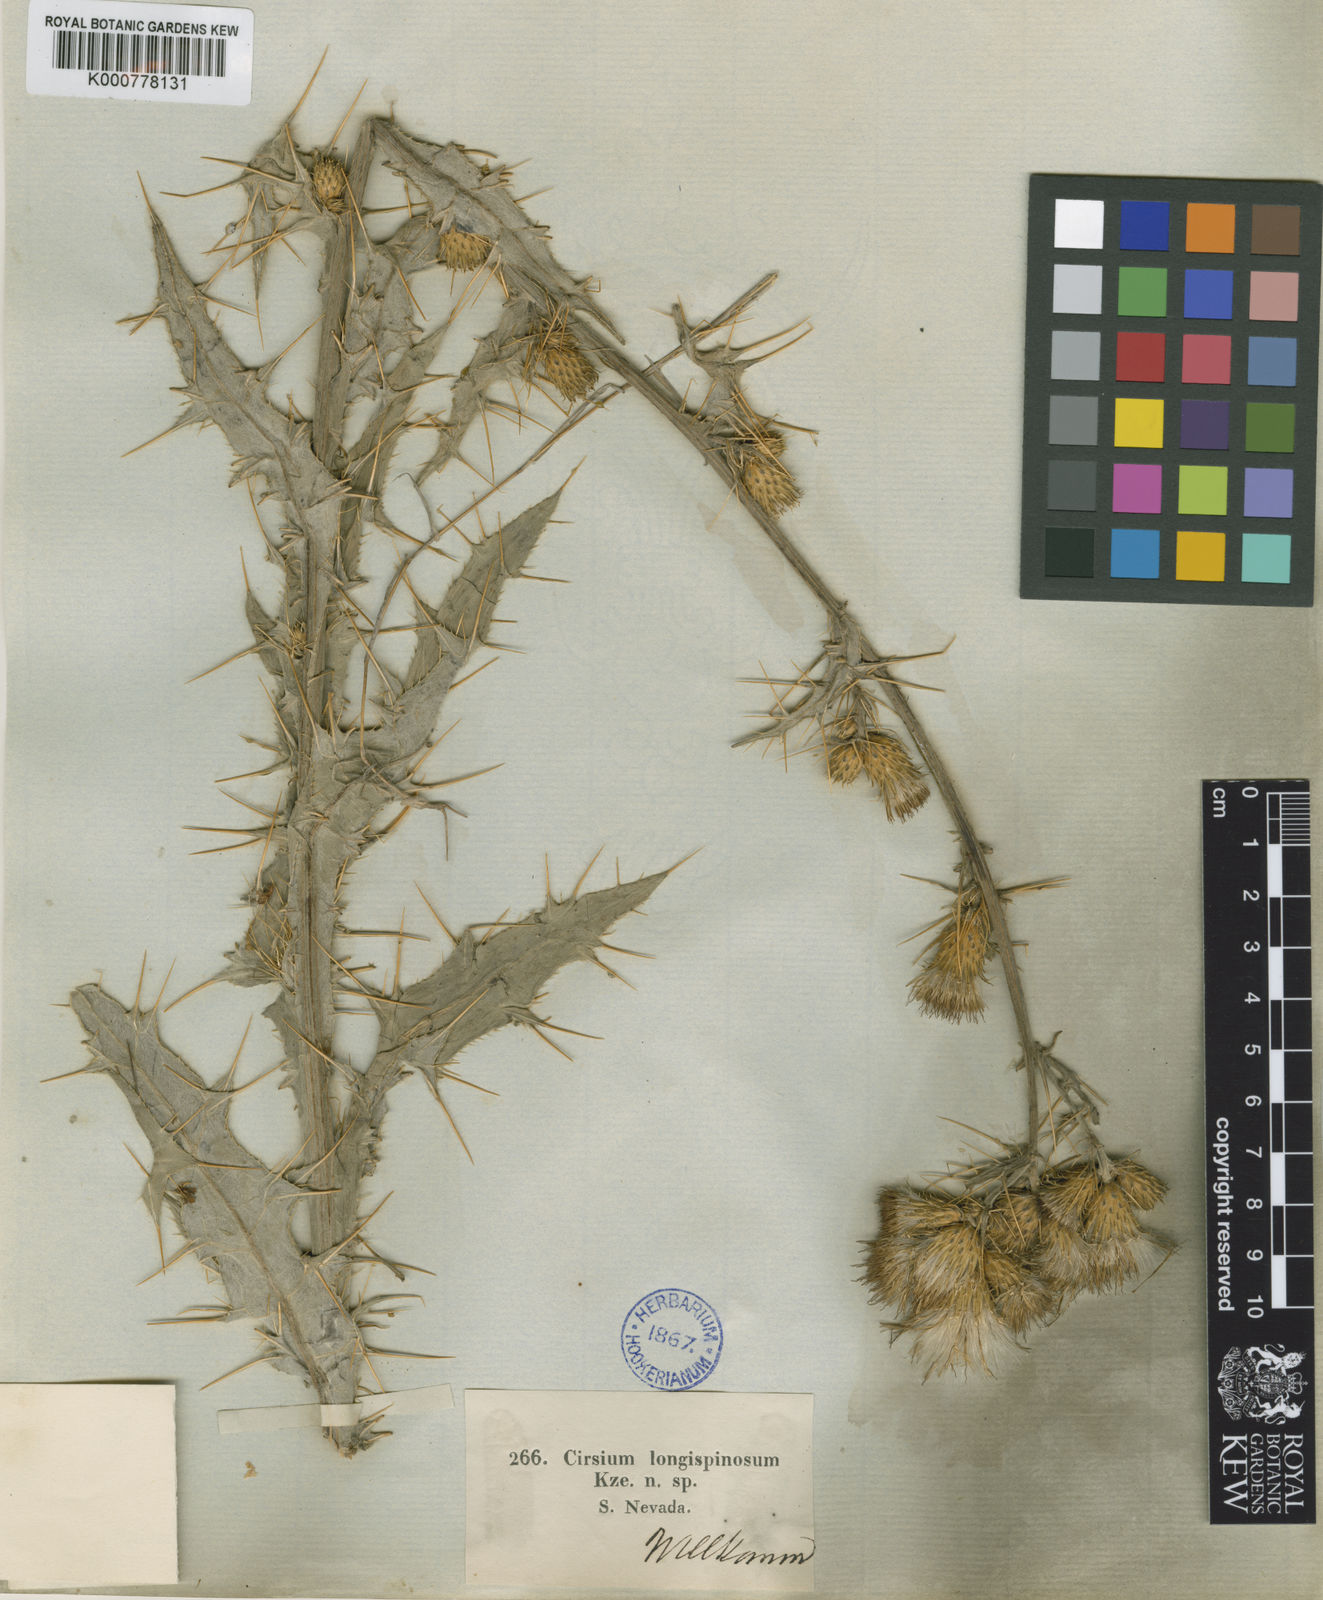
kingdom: Plantae
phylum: Tracheophyta
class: Magnoliopsida
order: Asterales
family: Asteraceae
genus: Cirsium
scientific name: Cirsium
